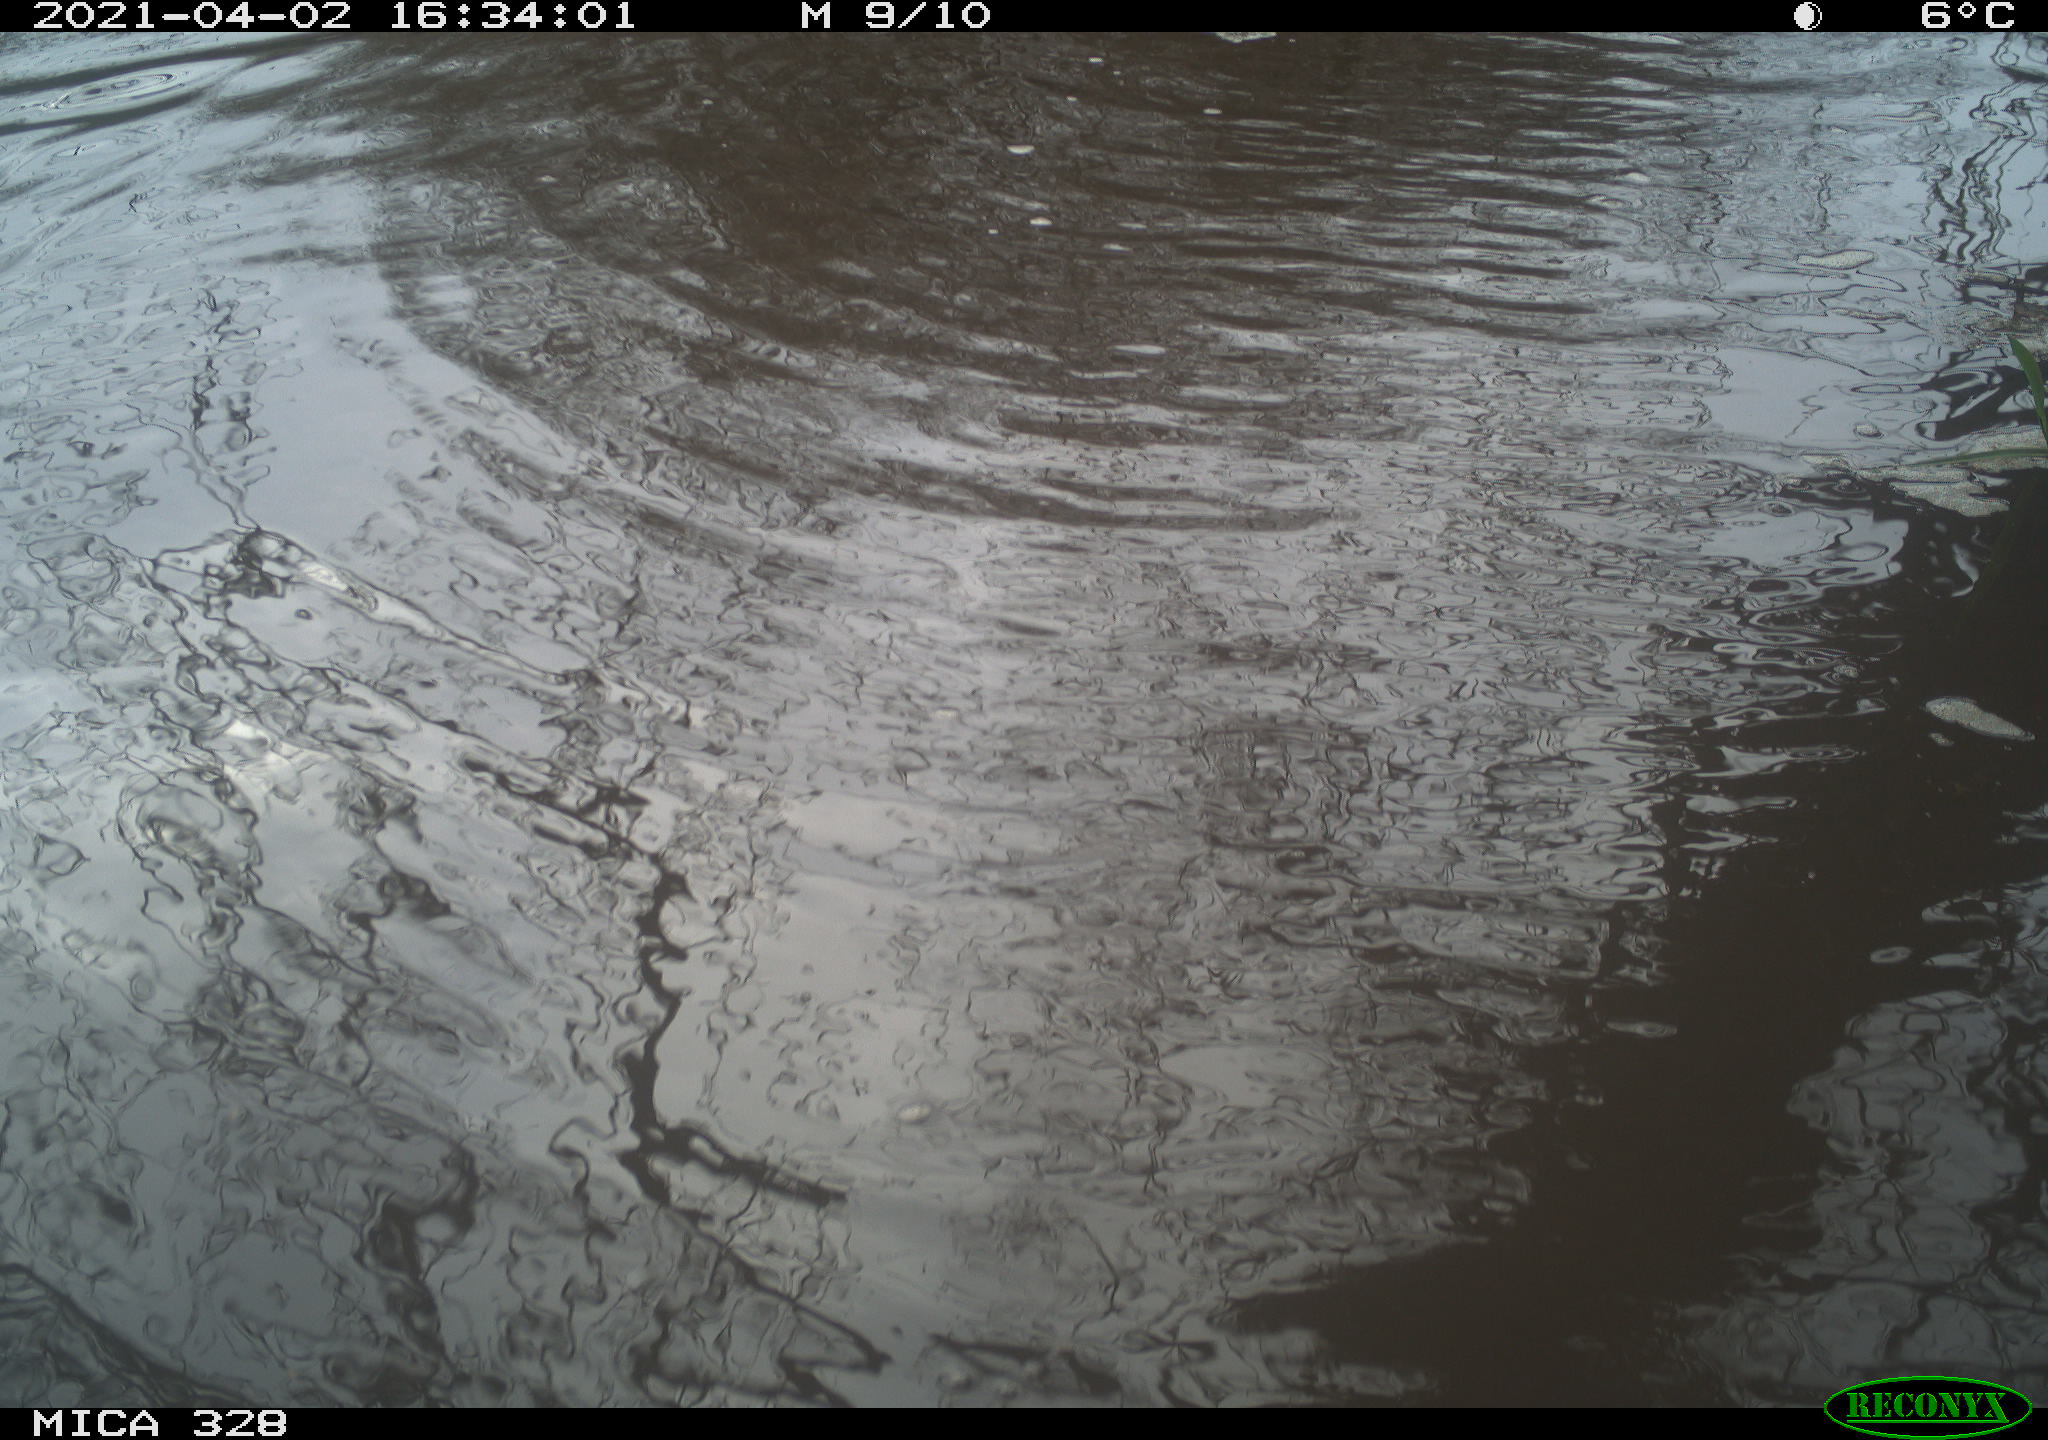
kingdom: Animalia
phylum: Chordata
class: Mammalia
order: Rodentia
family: Cricetidae
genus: Ondatra
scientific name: Ondatra zibethicus
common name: Muskrat
